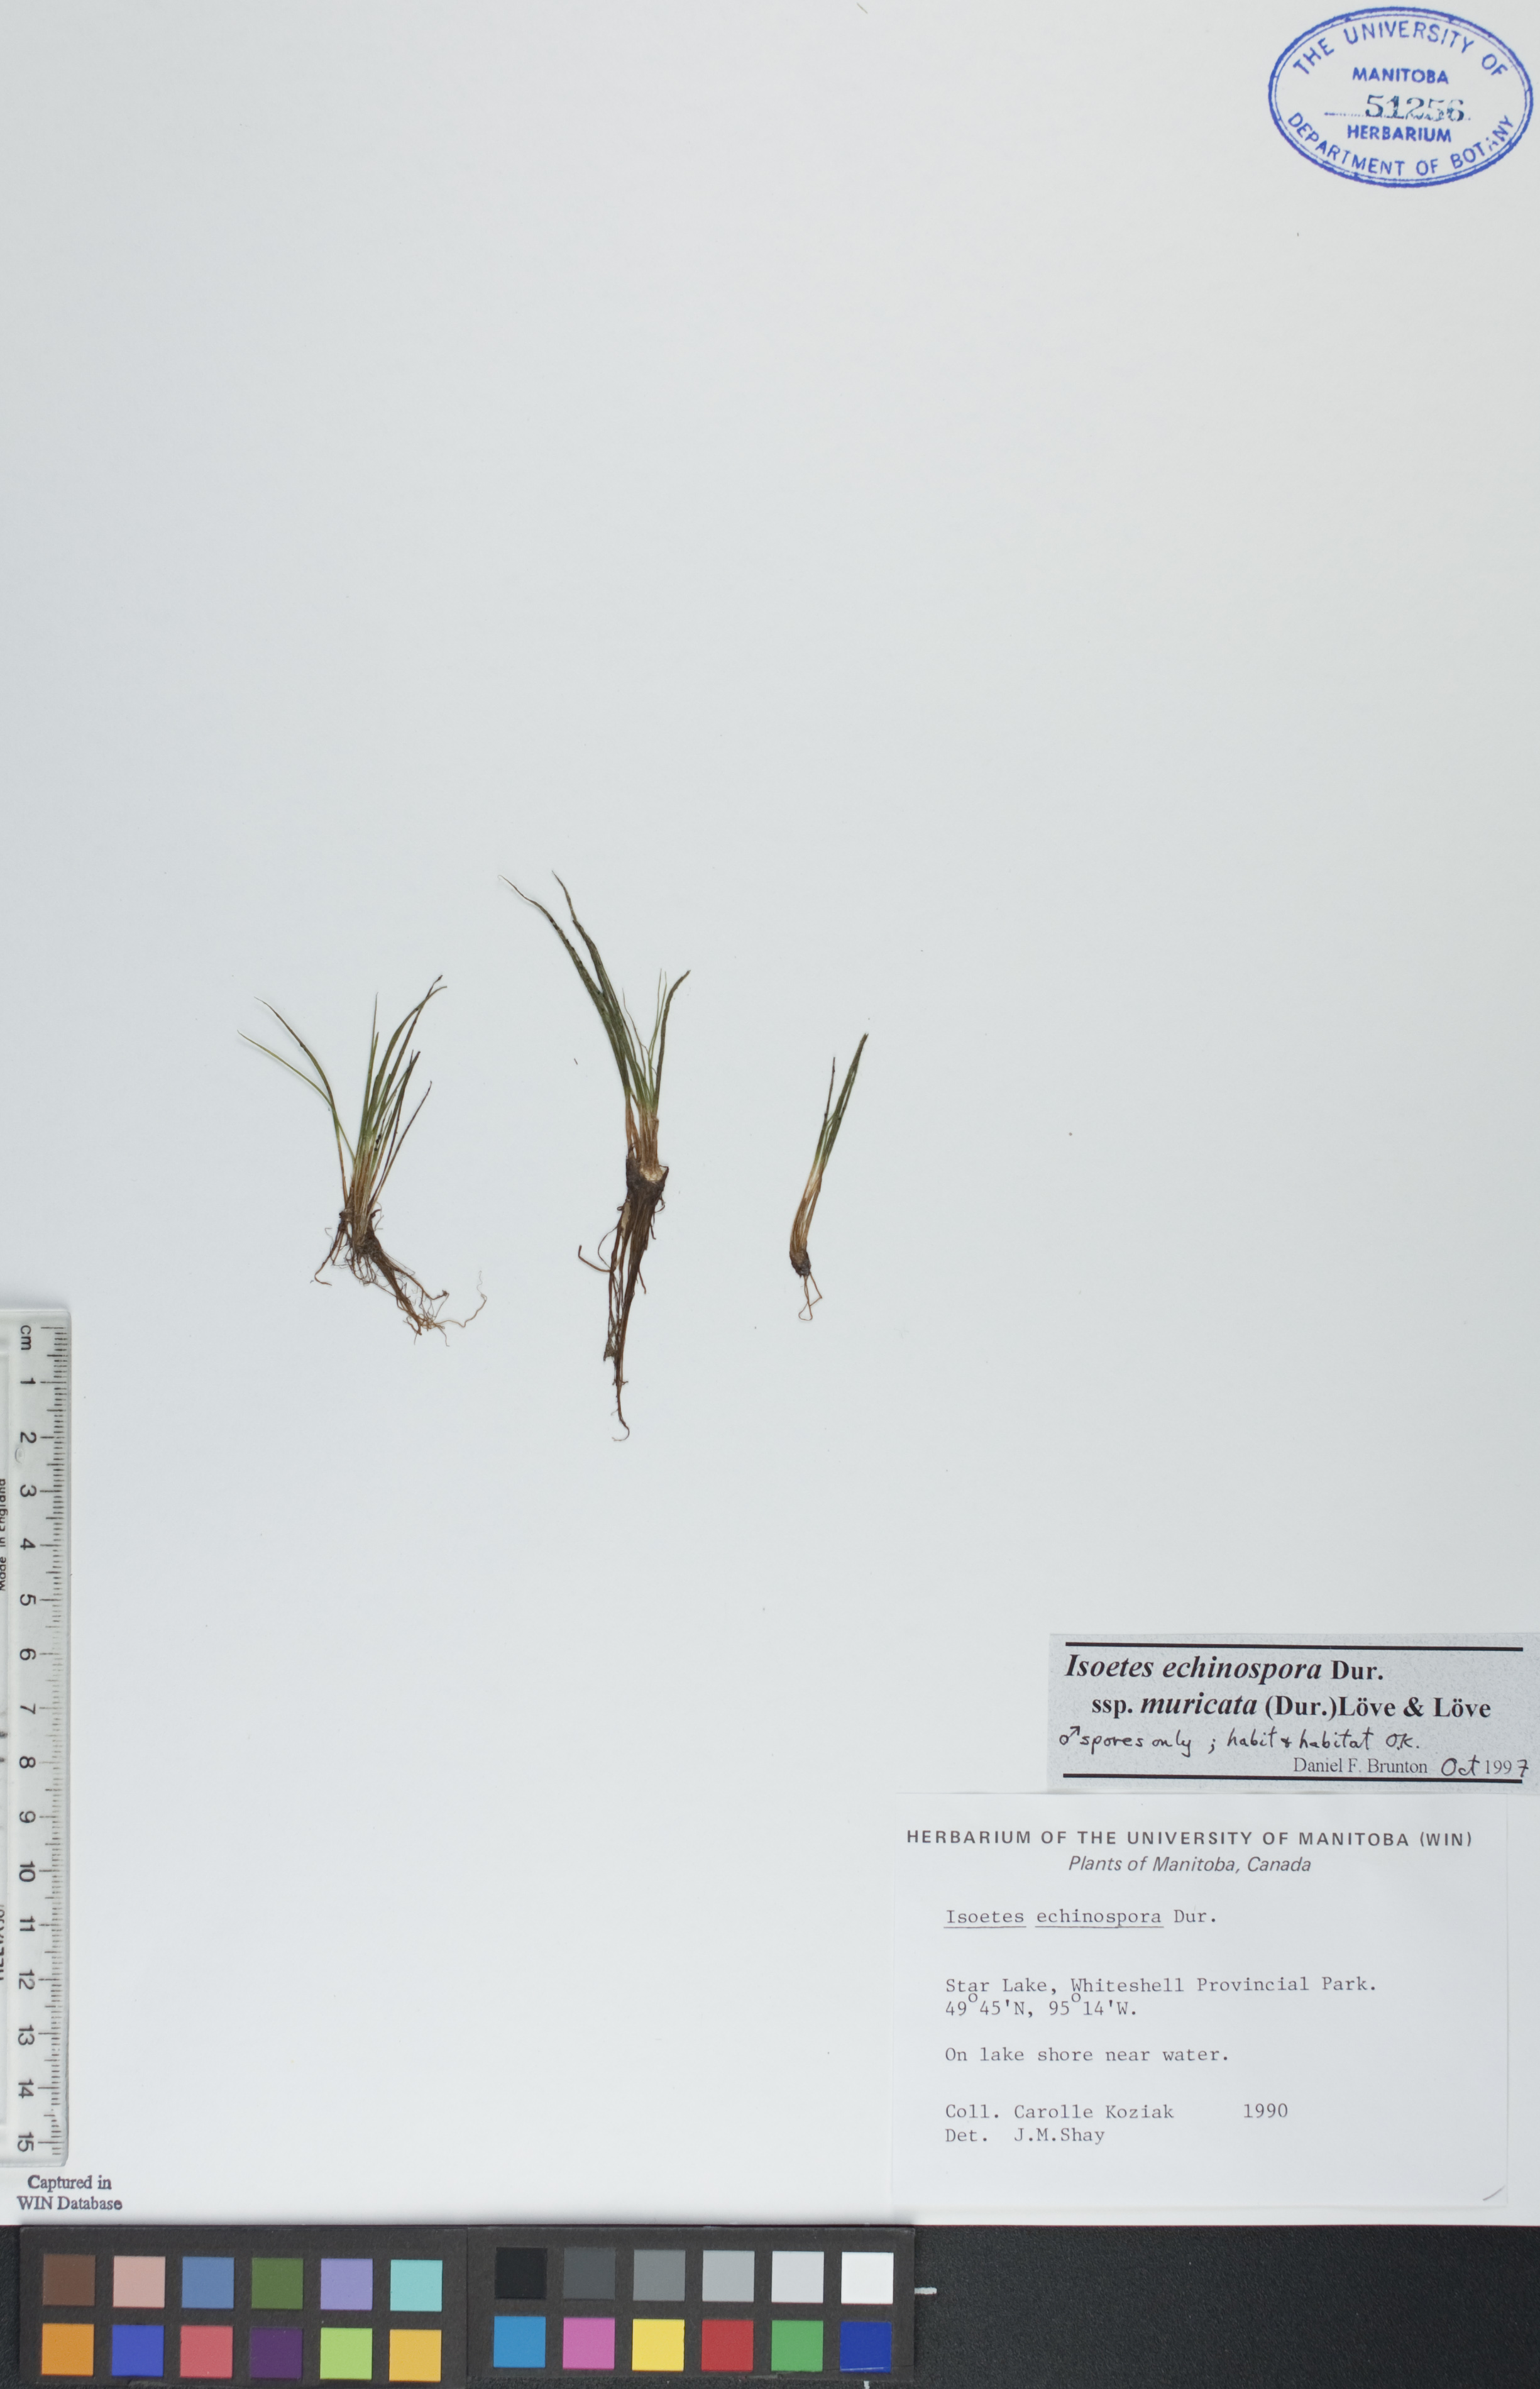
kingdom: Plantae
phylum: Tracheophyta
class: Lycopodiopsida
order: Isoetales
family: Isoetaceae
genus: Isoetes
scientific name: Isoetes echinospora
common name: Spring quillwort
